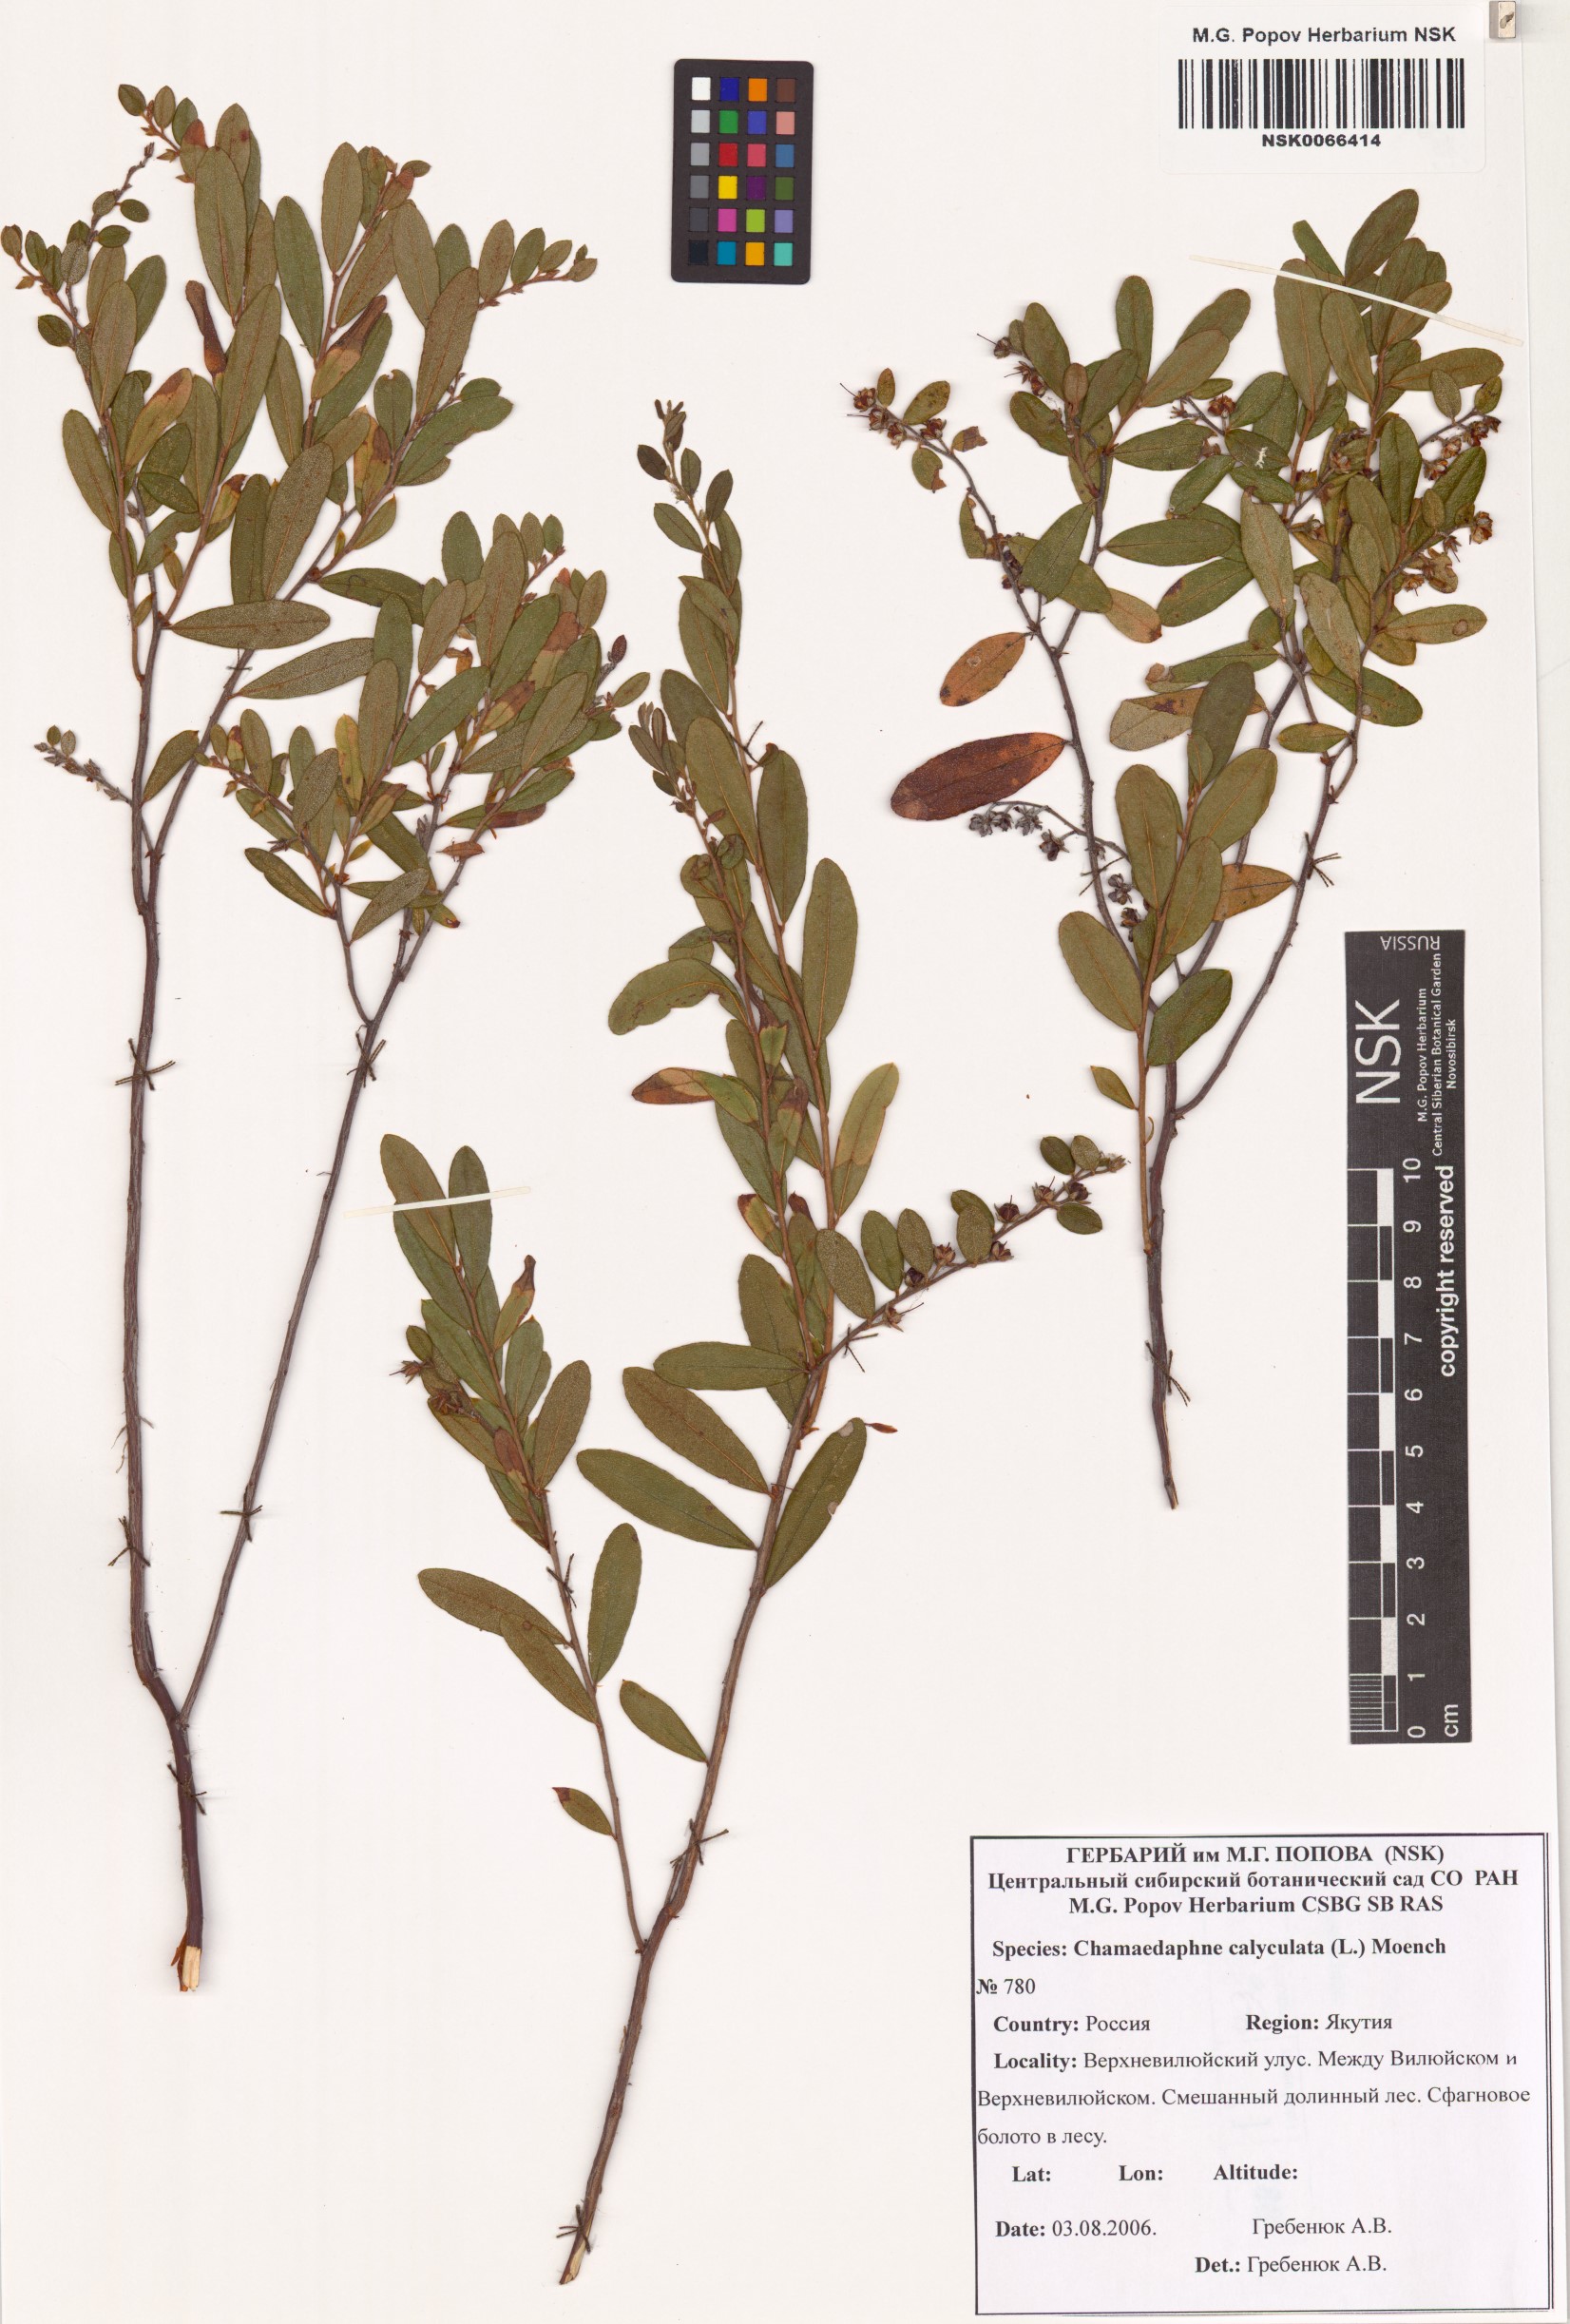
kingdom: Plantae
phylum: Tracheophyta
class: Magnoliopsida
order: Ericales
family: Ericaceae
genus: Chamaedaphne
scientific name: Chamaedaphne calyculata
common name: Leatherleaf
